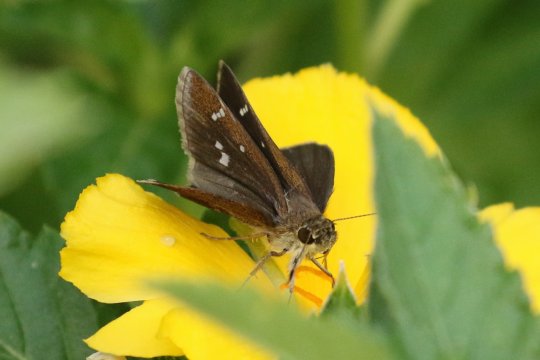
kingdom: Animalia
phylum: Arthropoda
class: Insecta
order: Lepidoptera
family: Hesperiidae
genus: Lerema
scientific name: Lerema accius
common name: Clouded Skipper
